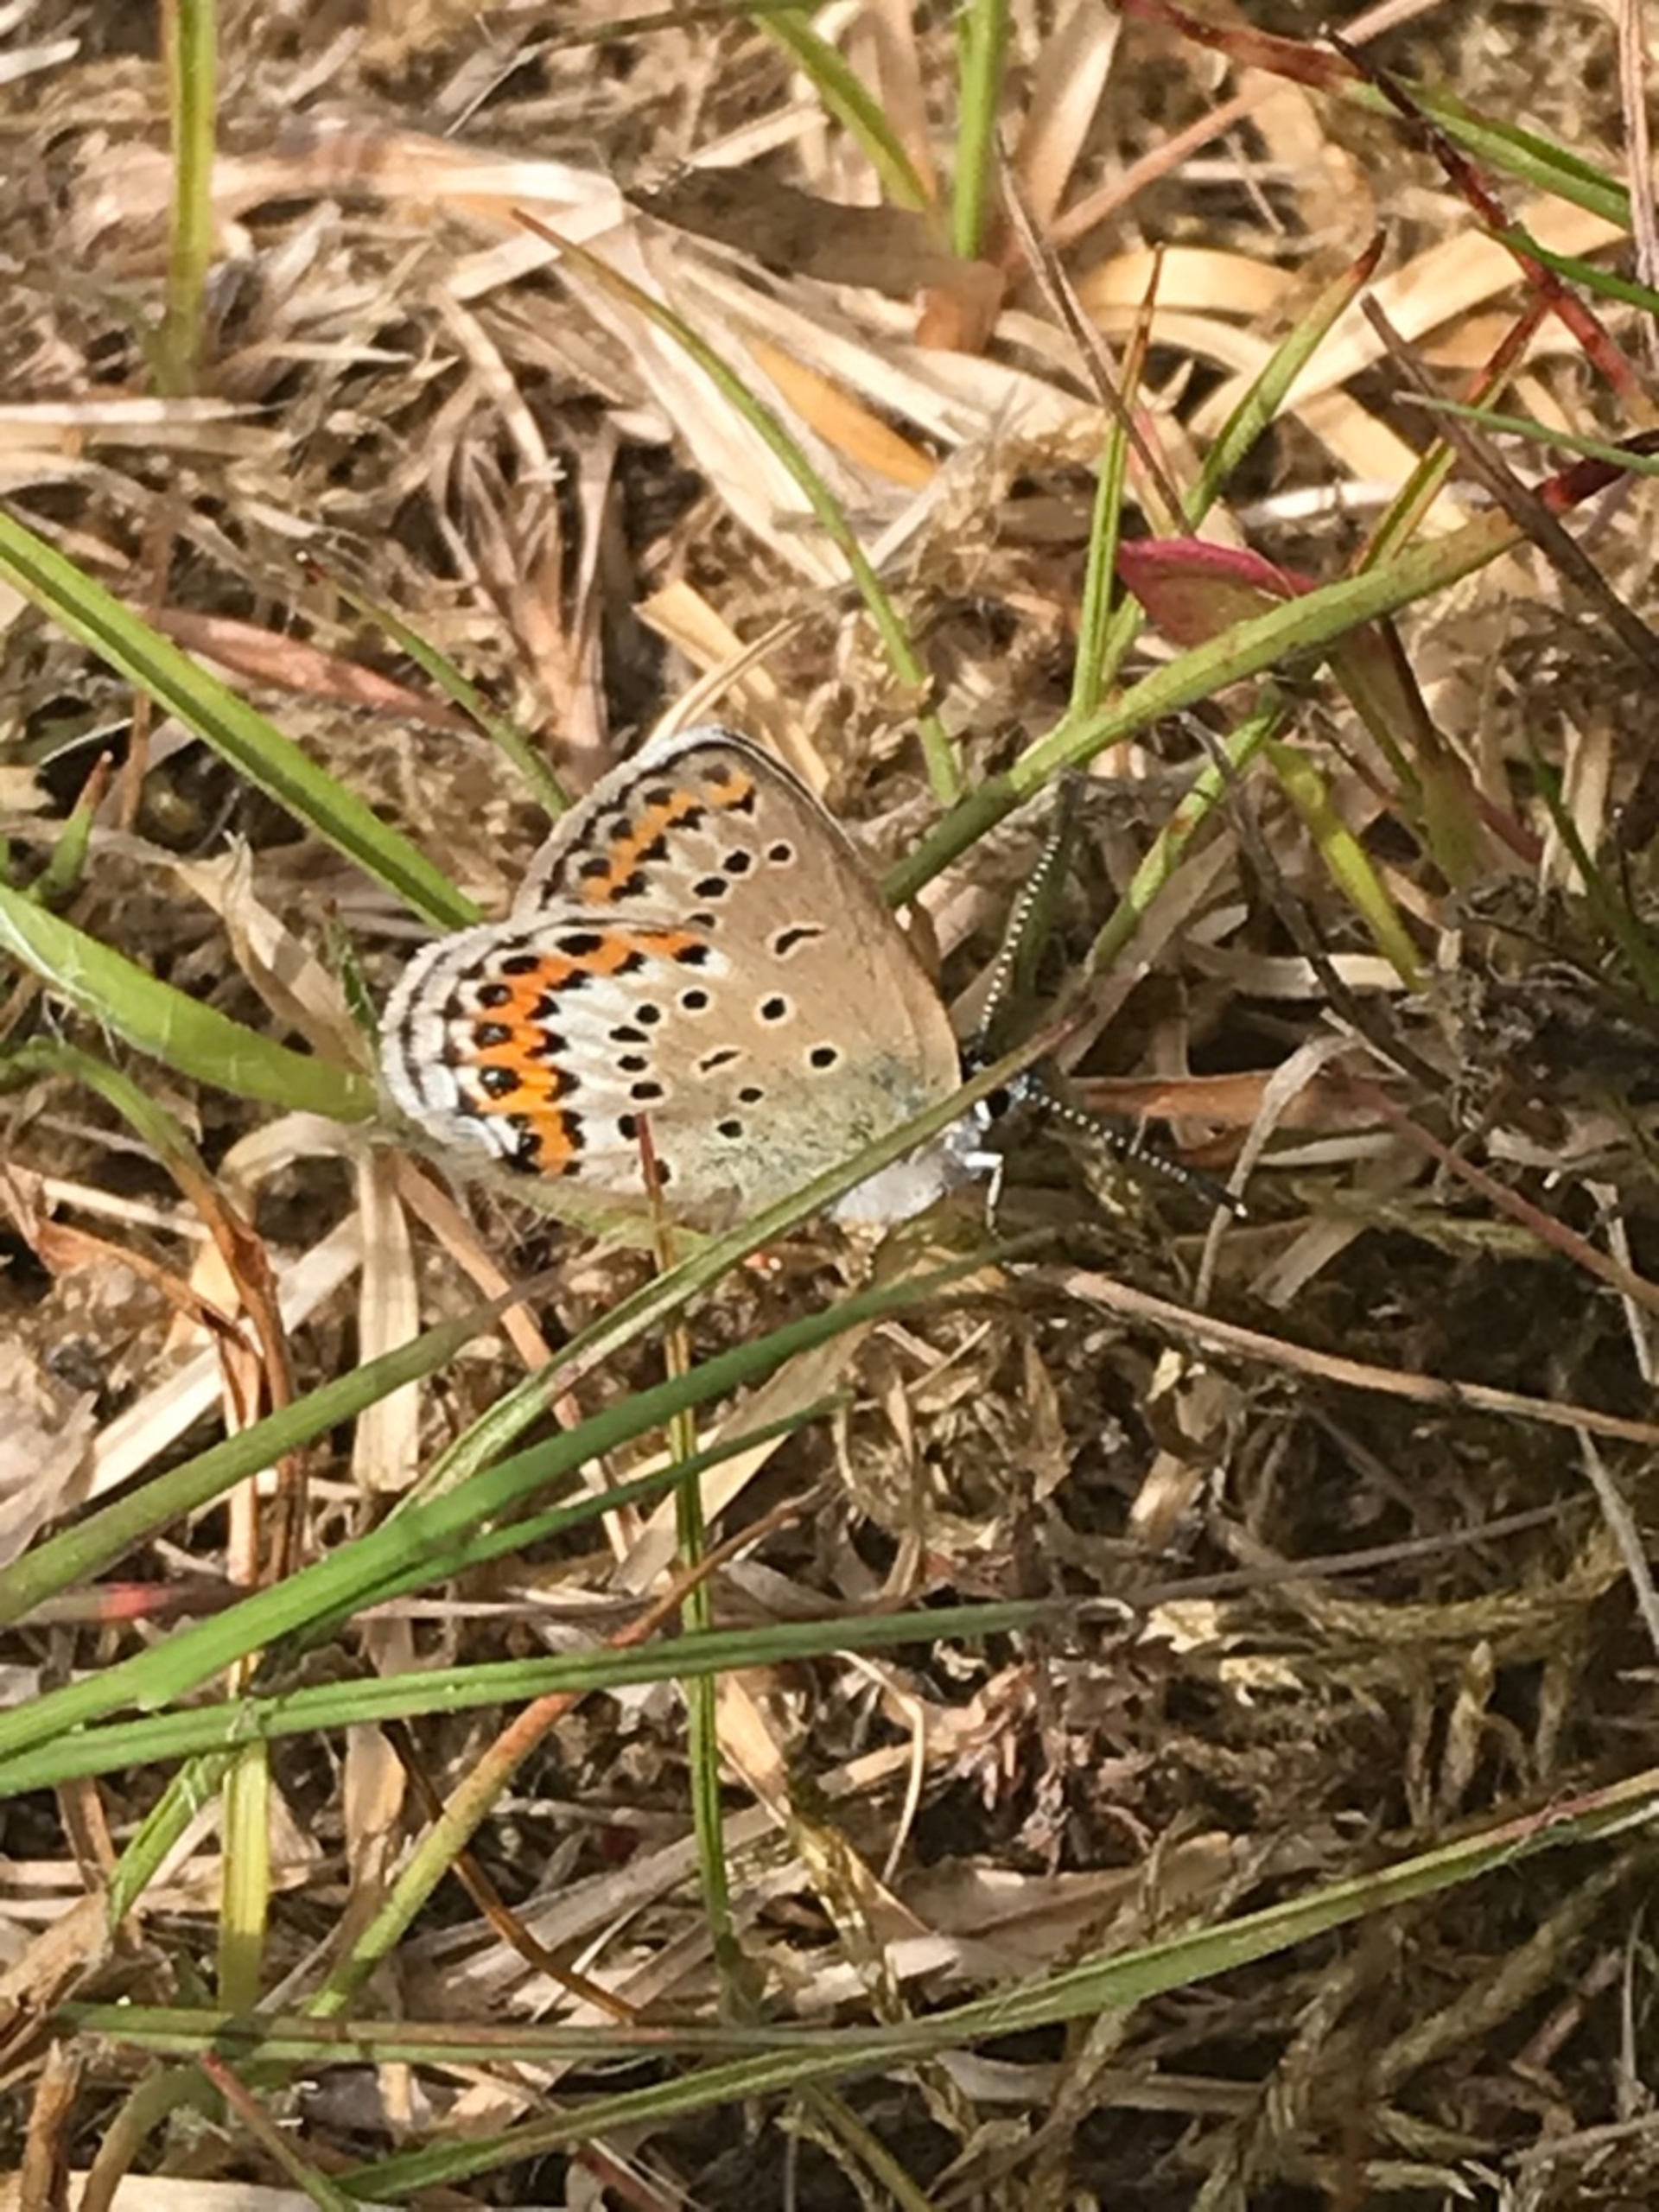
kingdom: Animalia
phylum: Arthropoda
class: Insecta
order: Lepidoptera
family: Lycaenidae
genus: Lycaeides
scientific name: Lycaeides idas
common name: Foranderlig blåfugl
